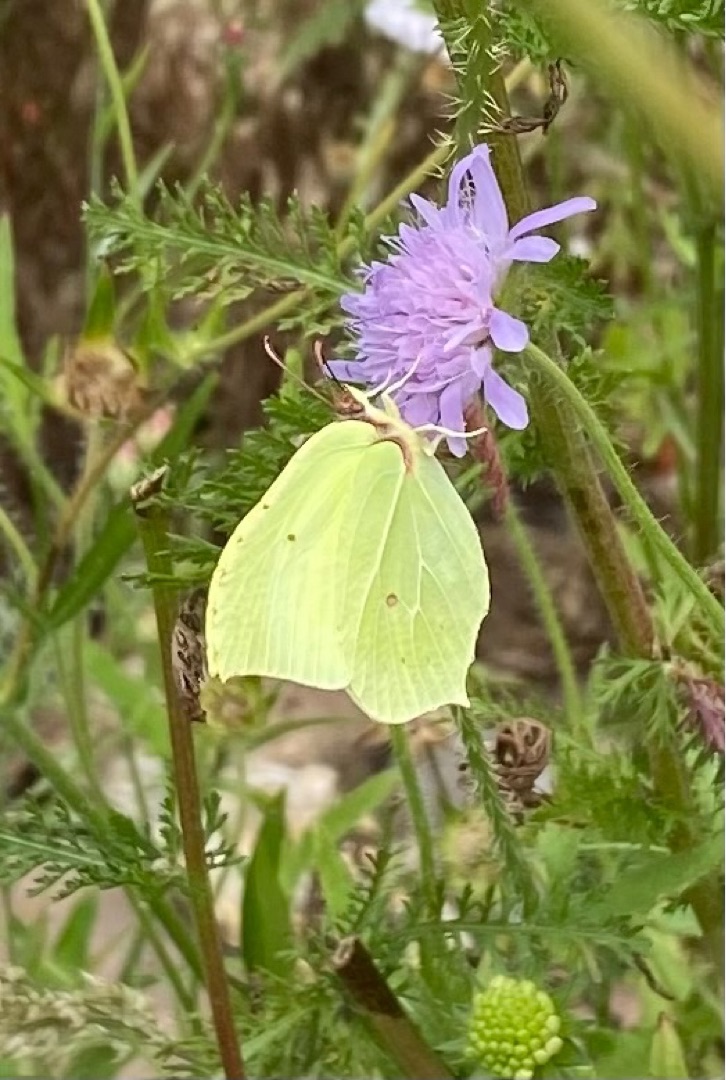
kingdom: Animalia
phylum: Arthropoda
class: Insecta
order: Lepidoptera
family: Pieridae
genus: Gonepteryx
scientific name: Gonepteryx rhamni
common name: Citronsommerfugl
